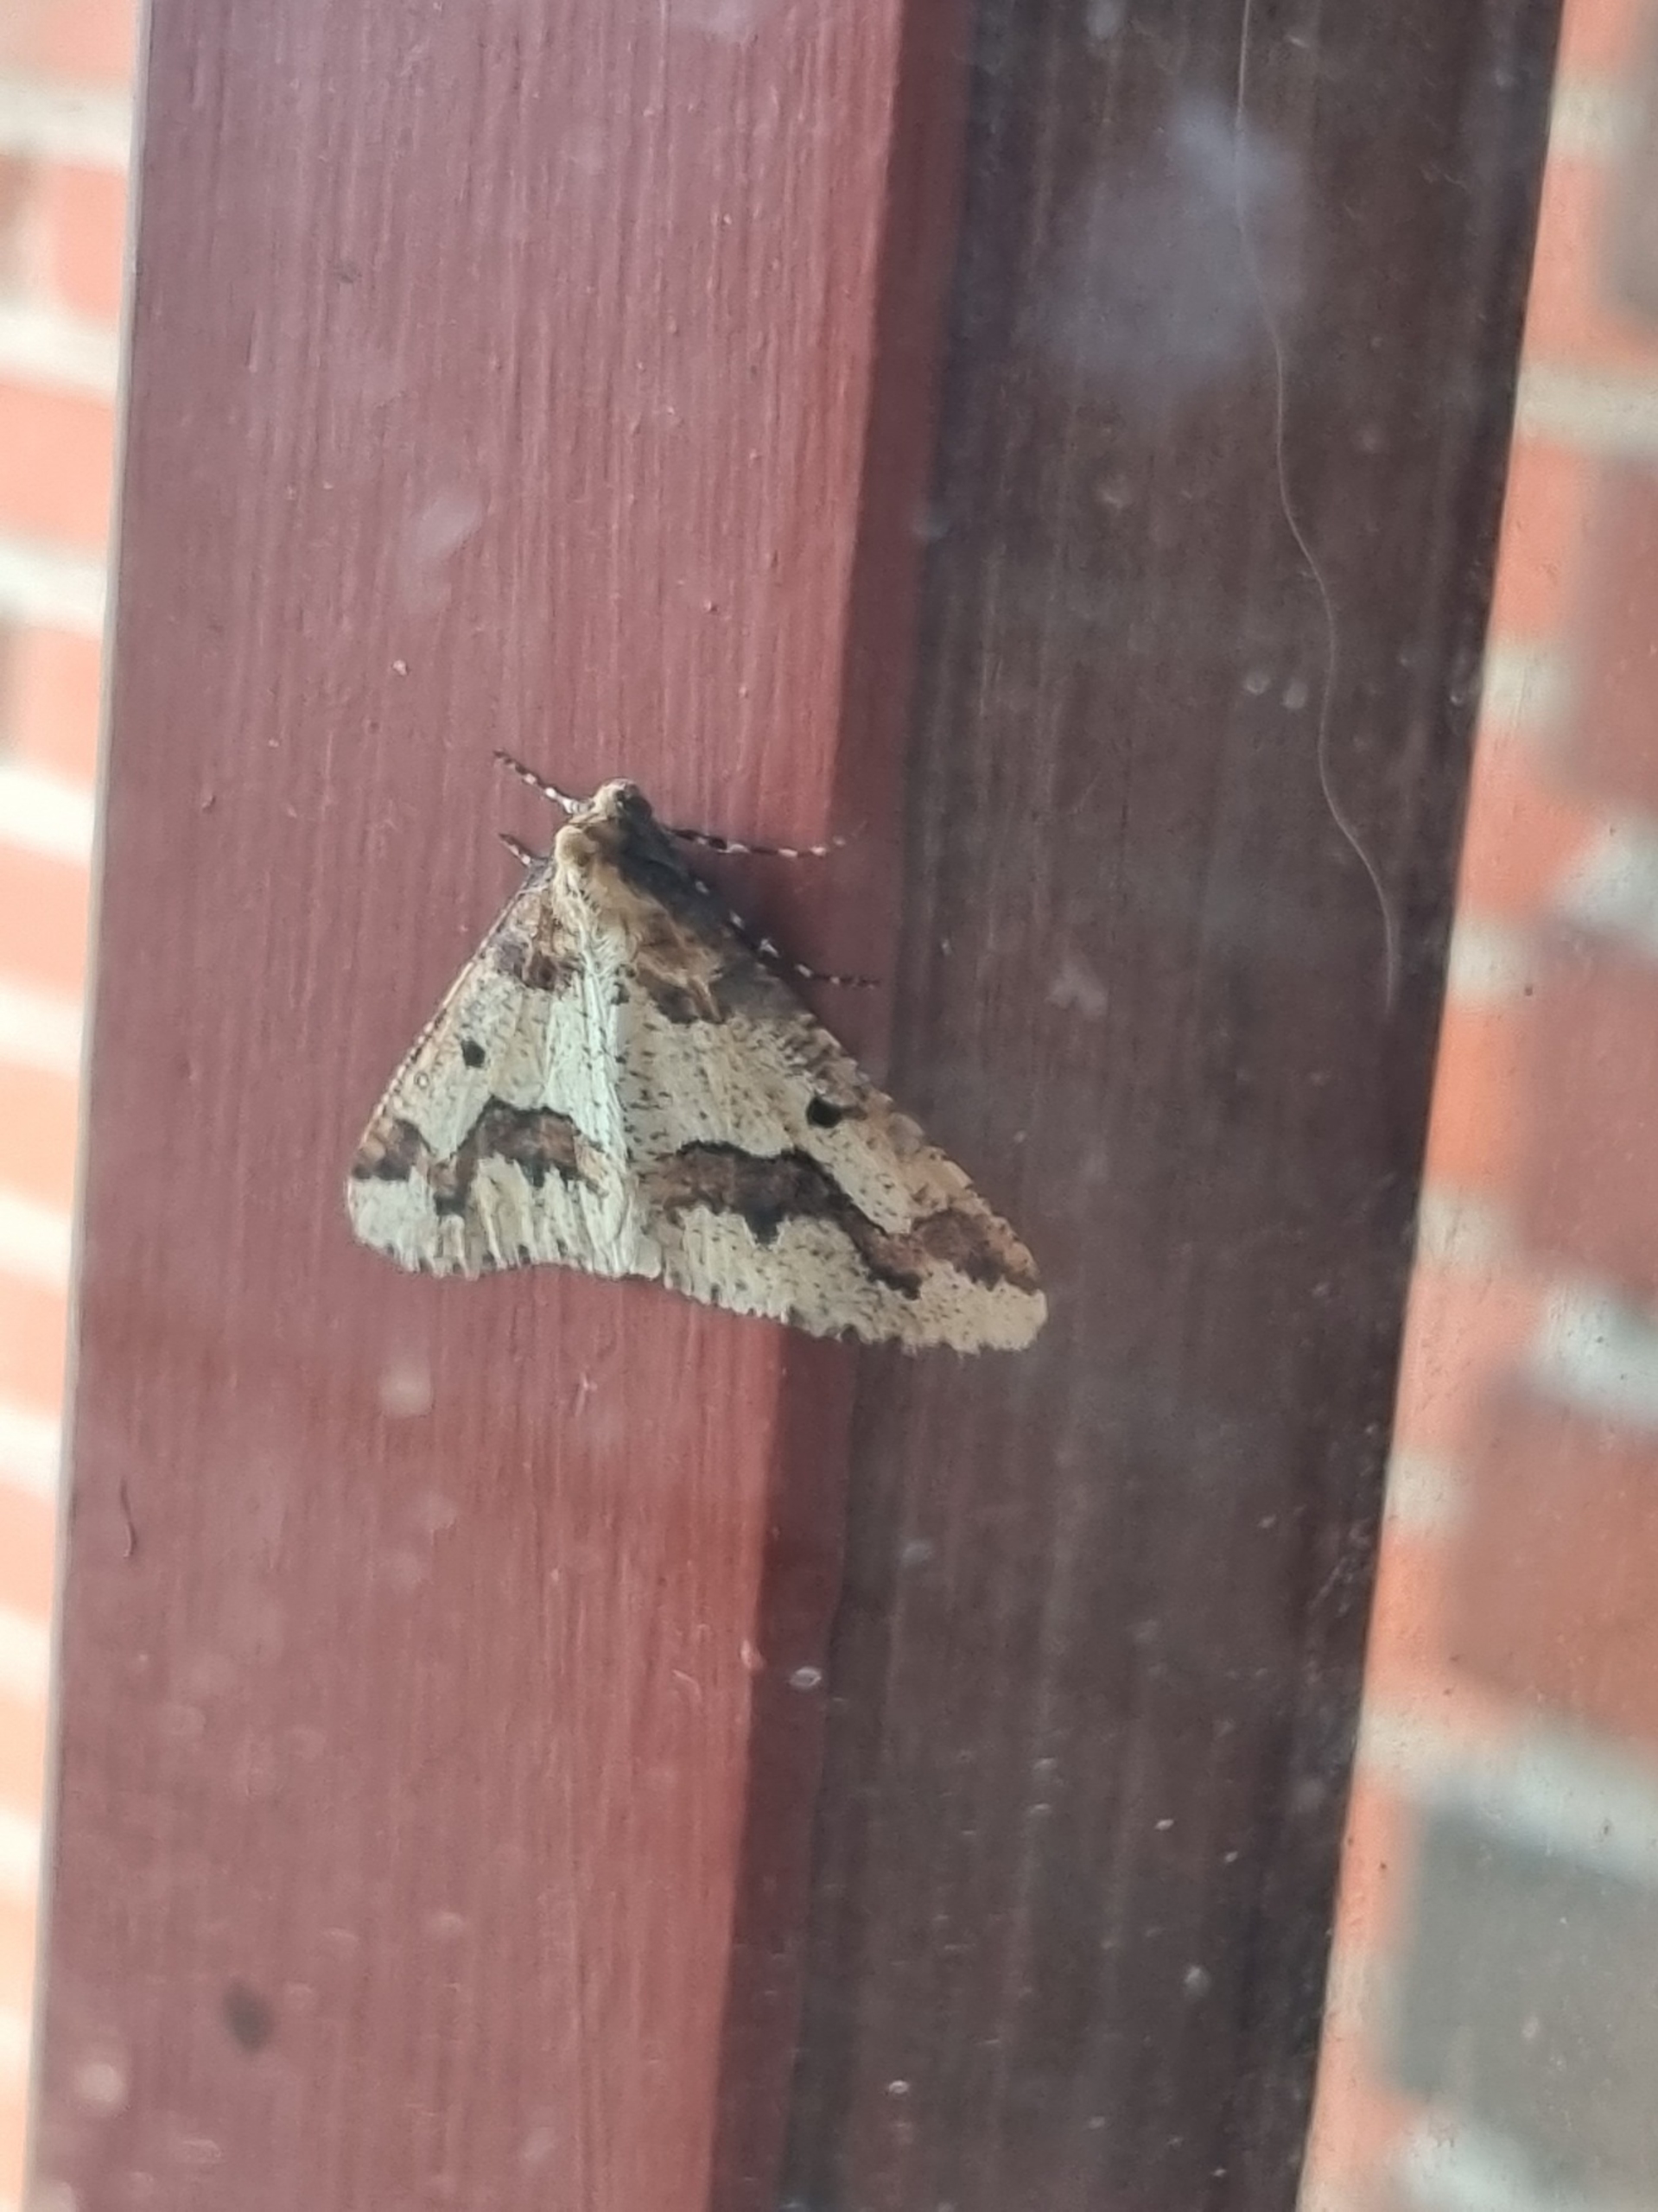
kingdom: Animalia
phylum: Arthropoda
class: Insecta
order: Lepidoptera
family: Geometridae
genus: Erannis
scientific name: Erannis defoliaria
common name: Stor frostmåler
